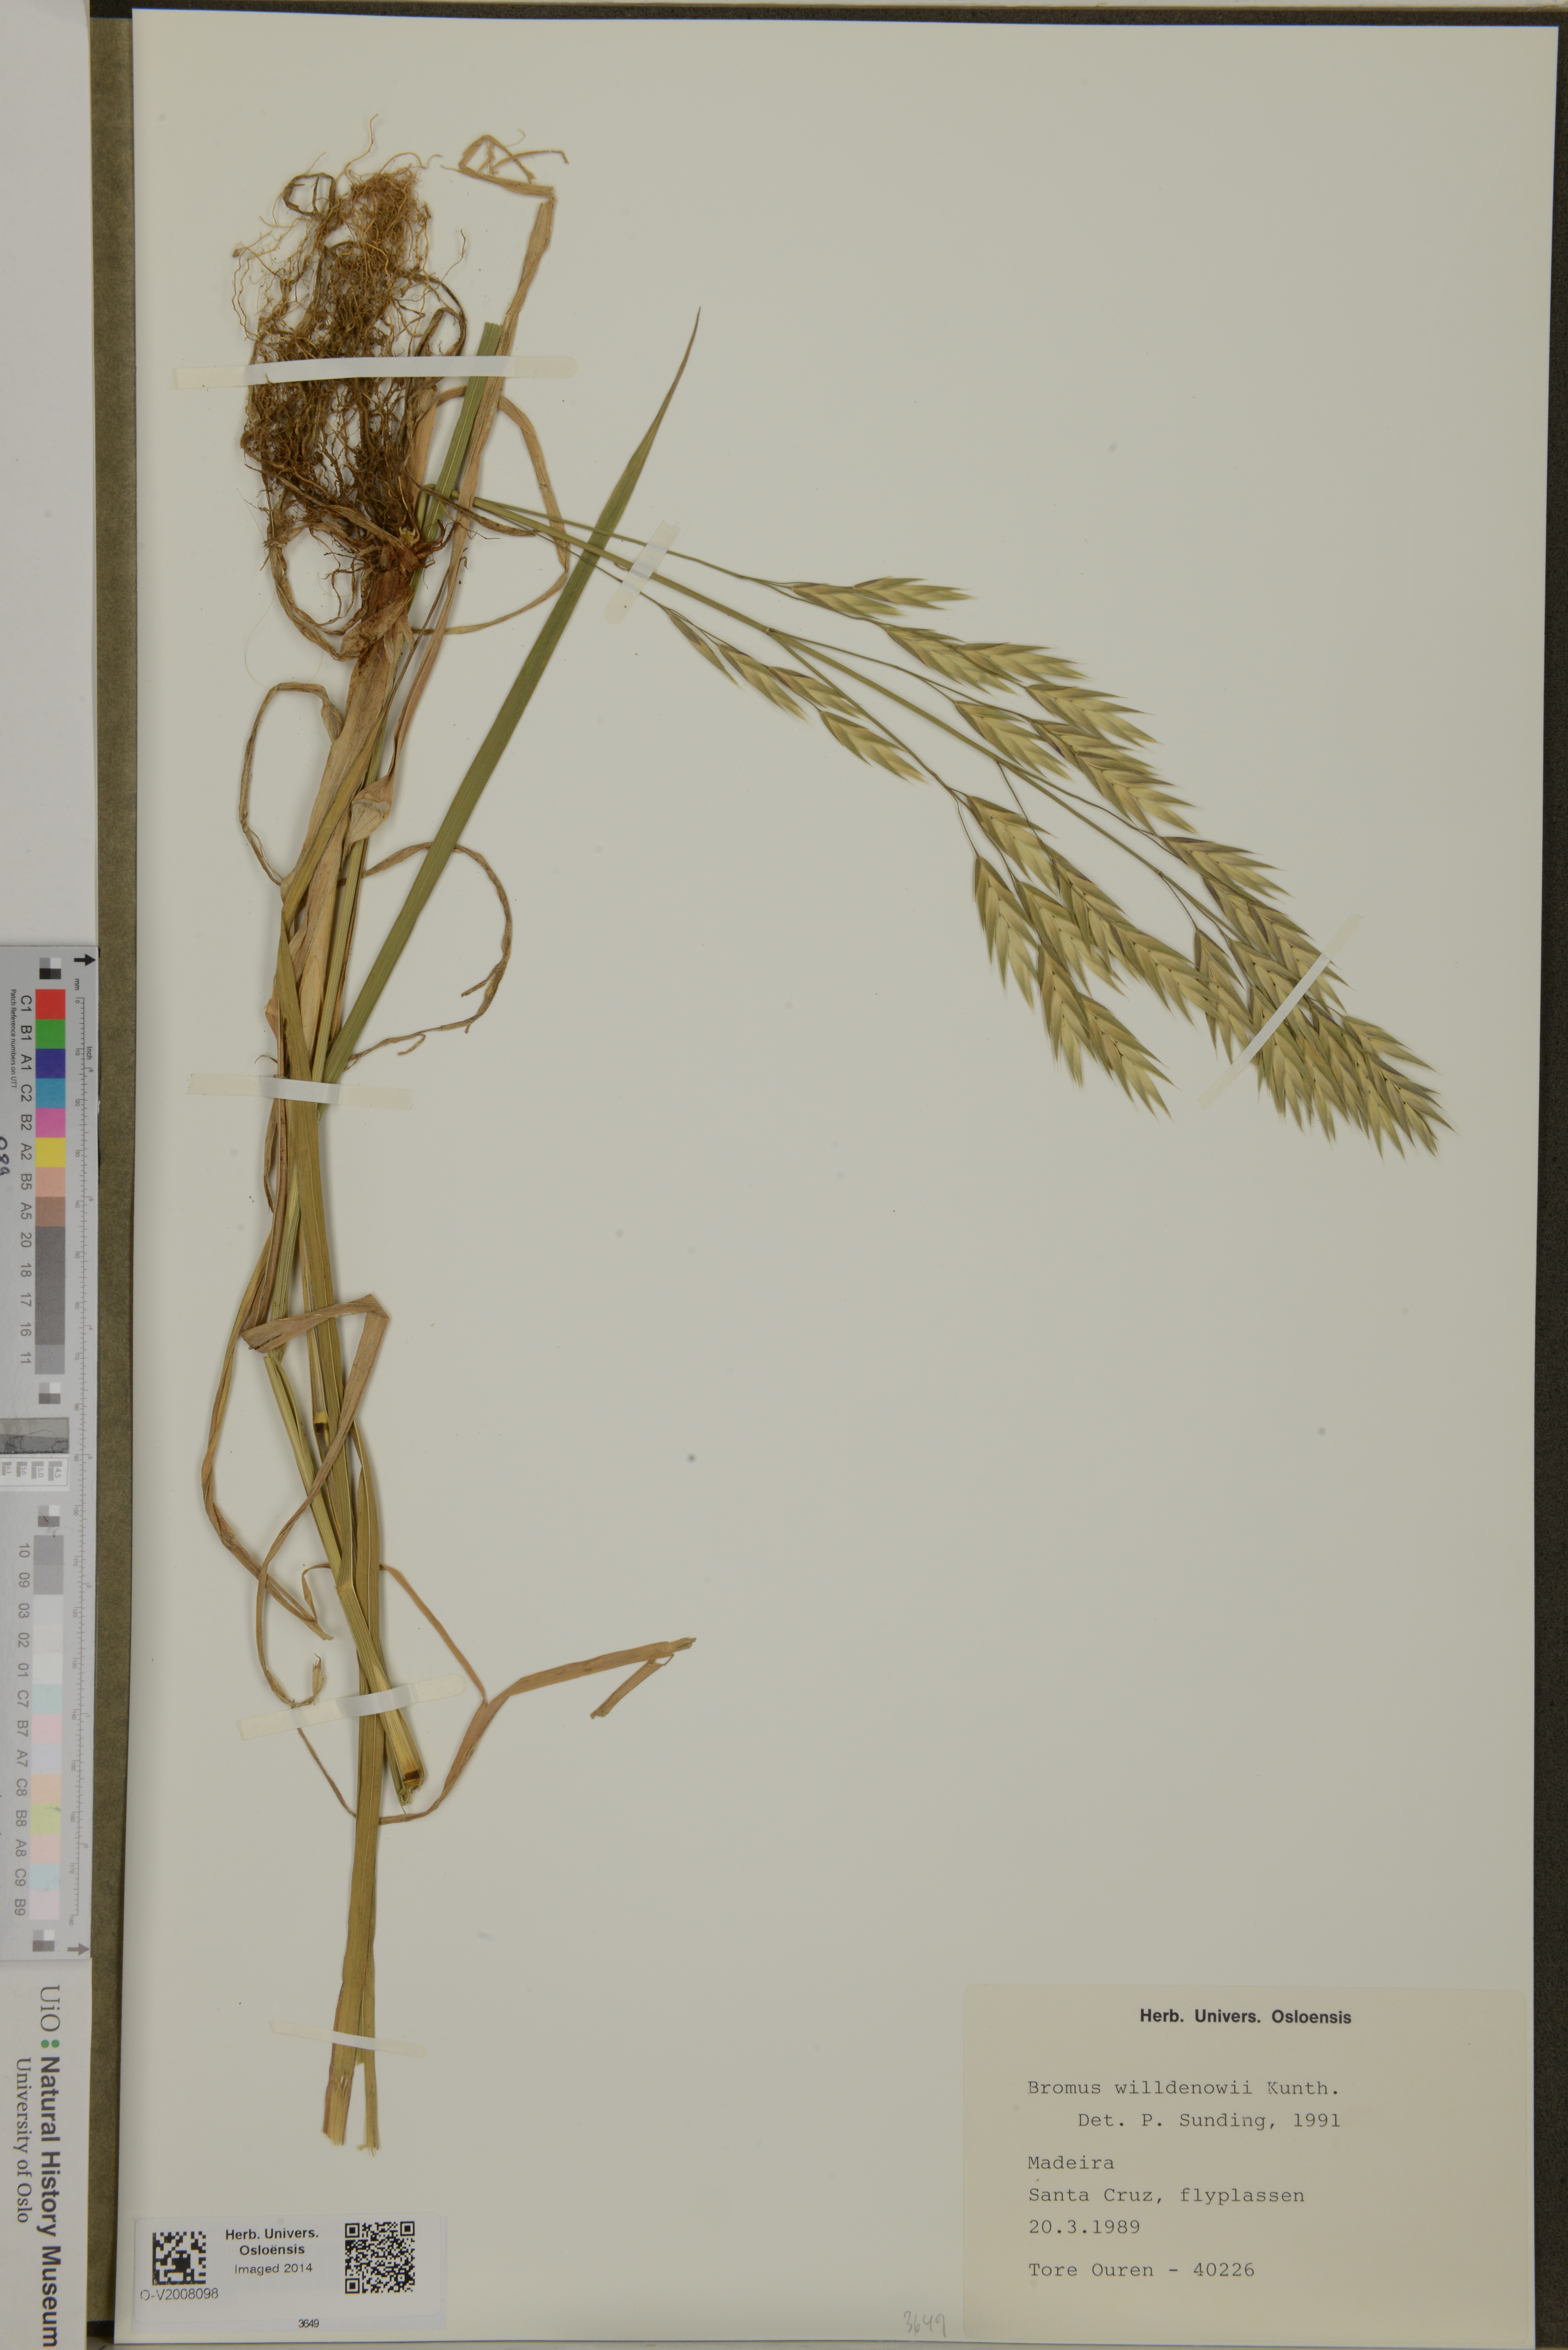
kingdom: Plantae
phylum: Tracheophyta
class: Liliopsida
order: Poales
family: Poaceae
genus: Bromus
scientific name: Bromus catharticus
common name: Rescuegrass
